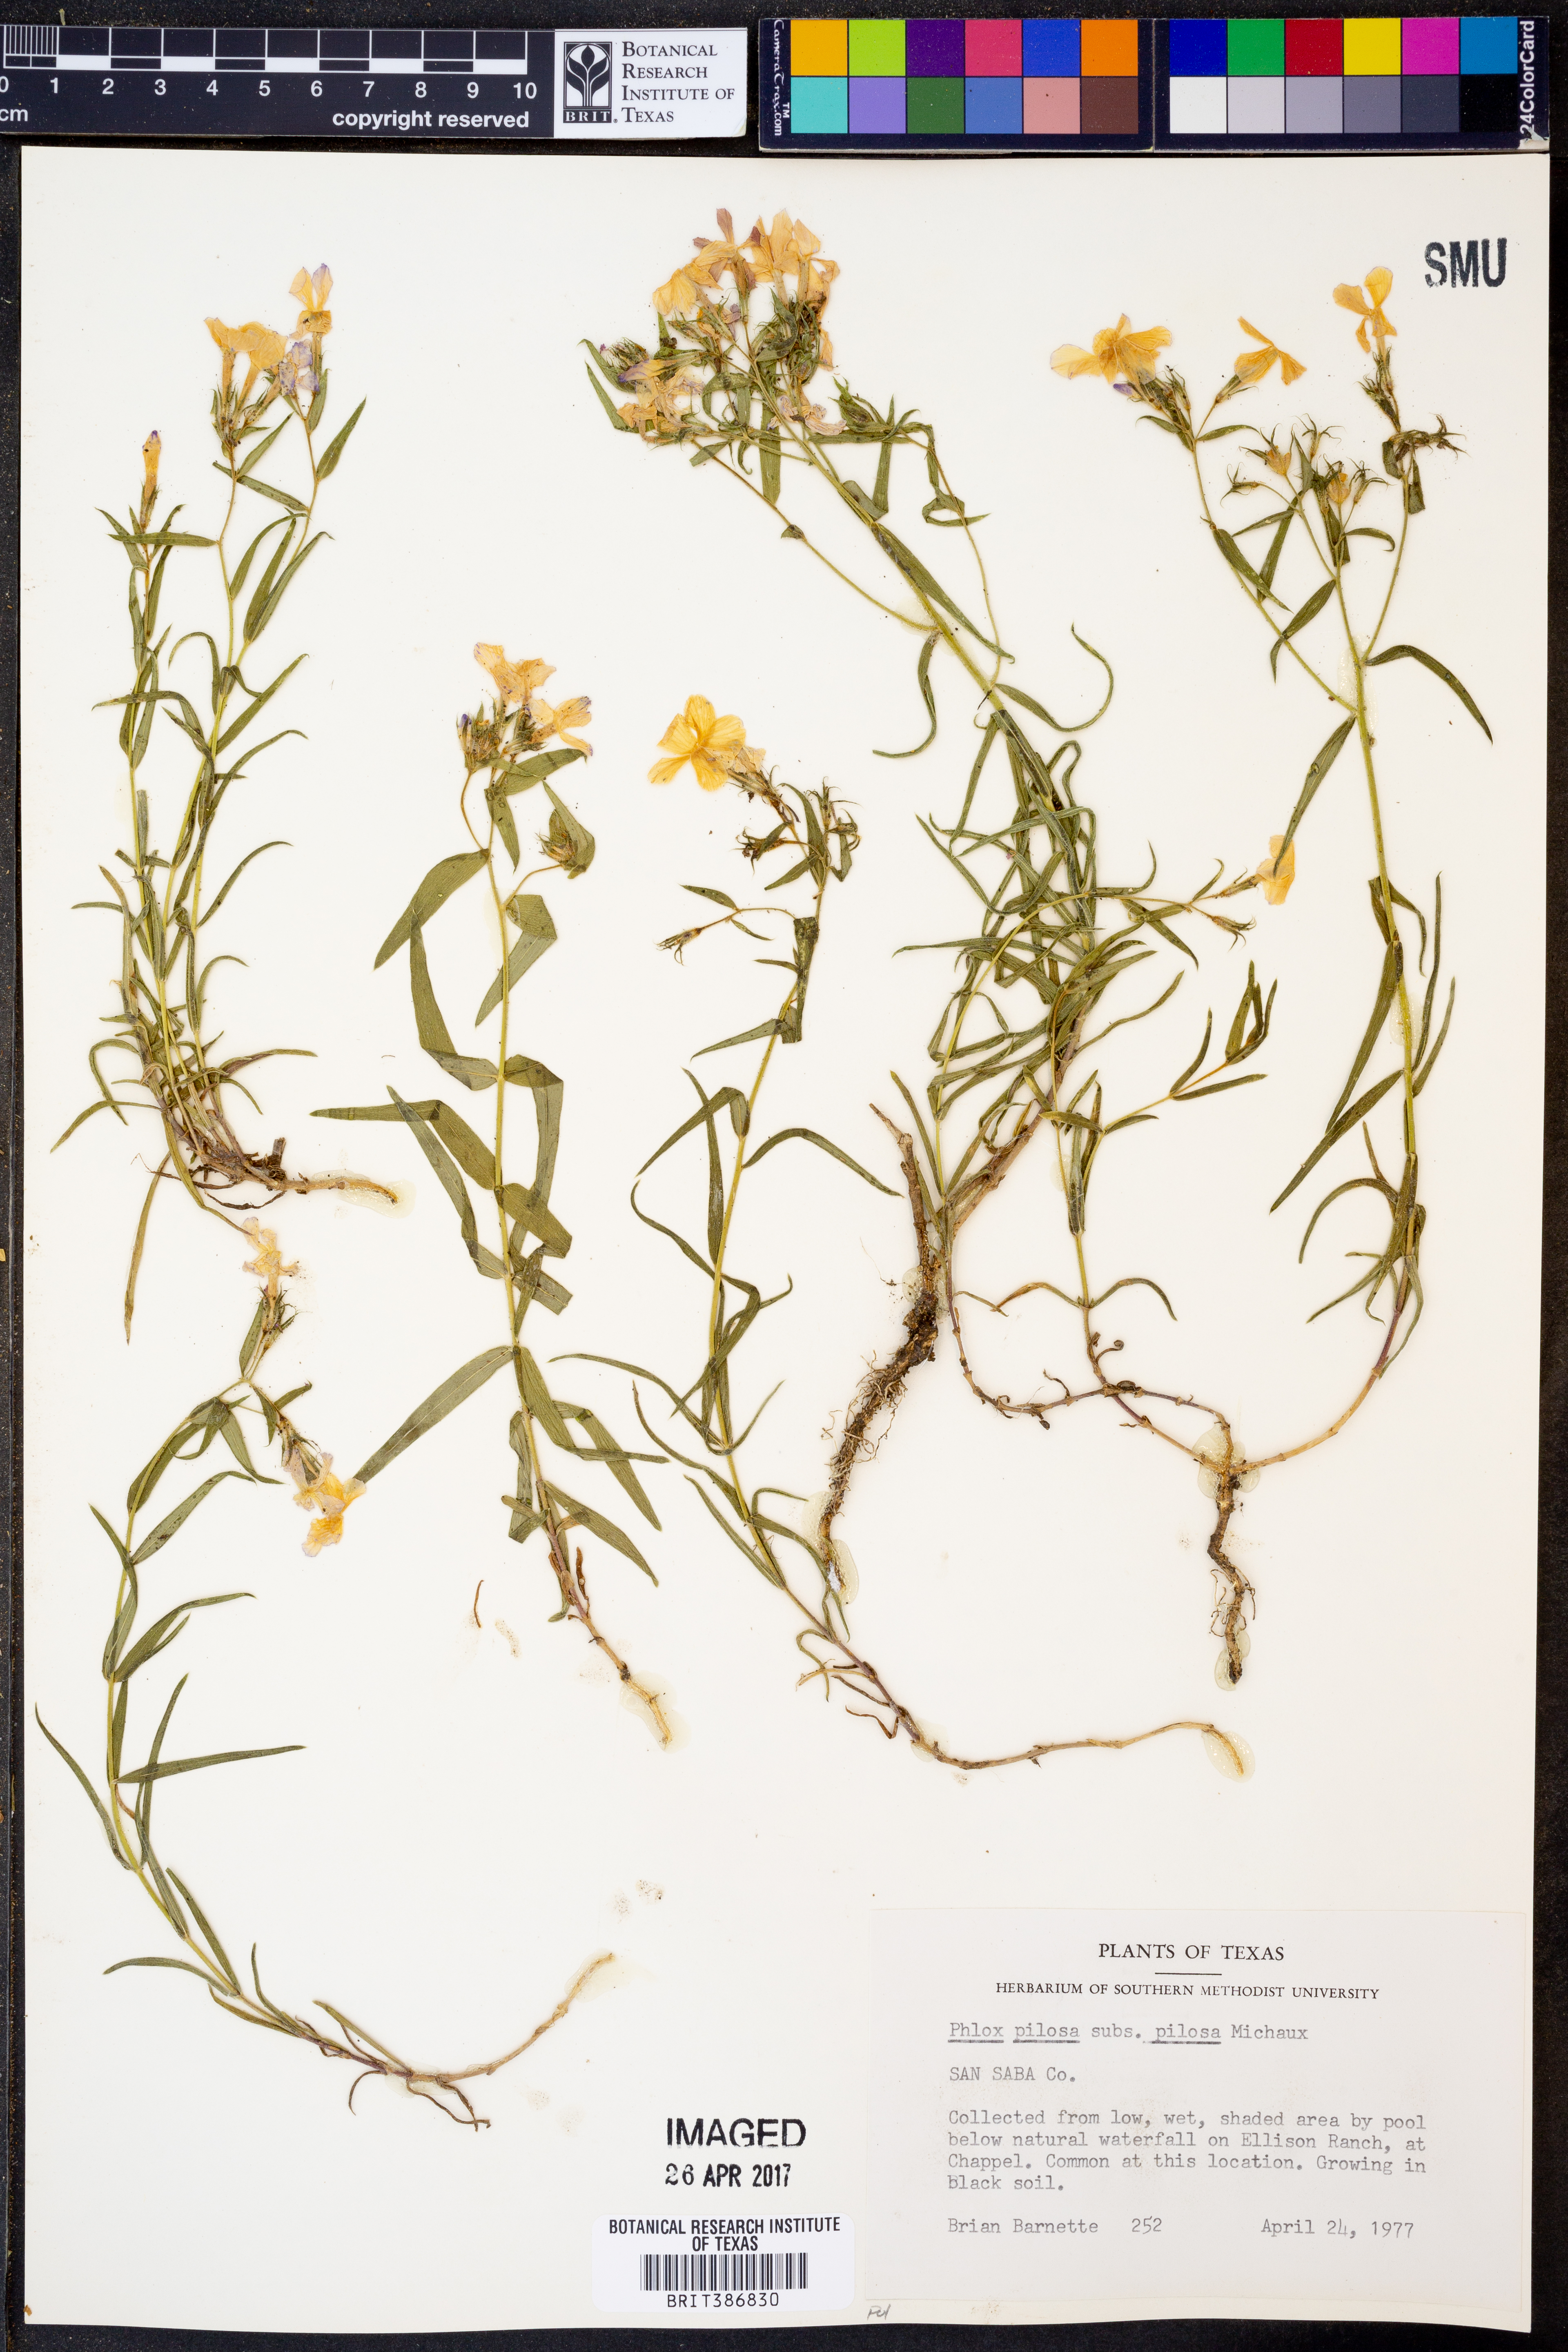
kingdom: Plantae
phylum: Tracheophyta
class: Magnoliopsida
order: Ericales
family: Polemoniaceae
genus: Phlox
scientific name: Phlox pilosa
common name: Prairie phlox
